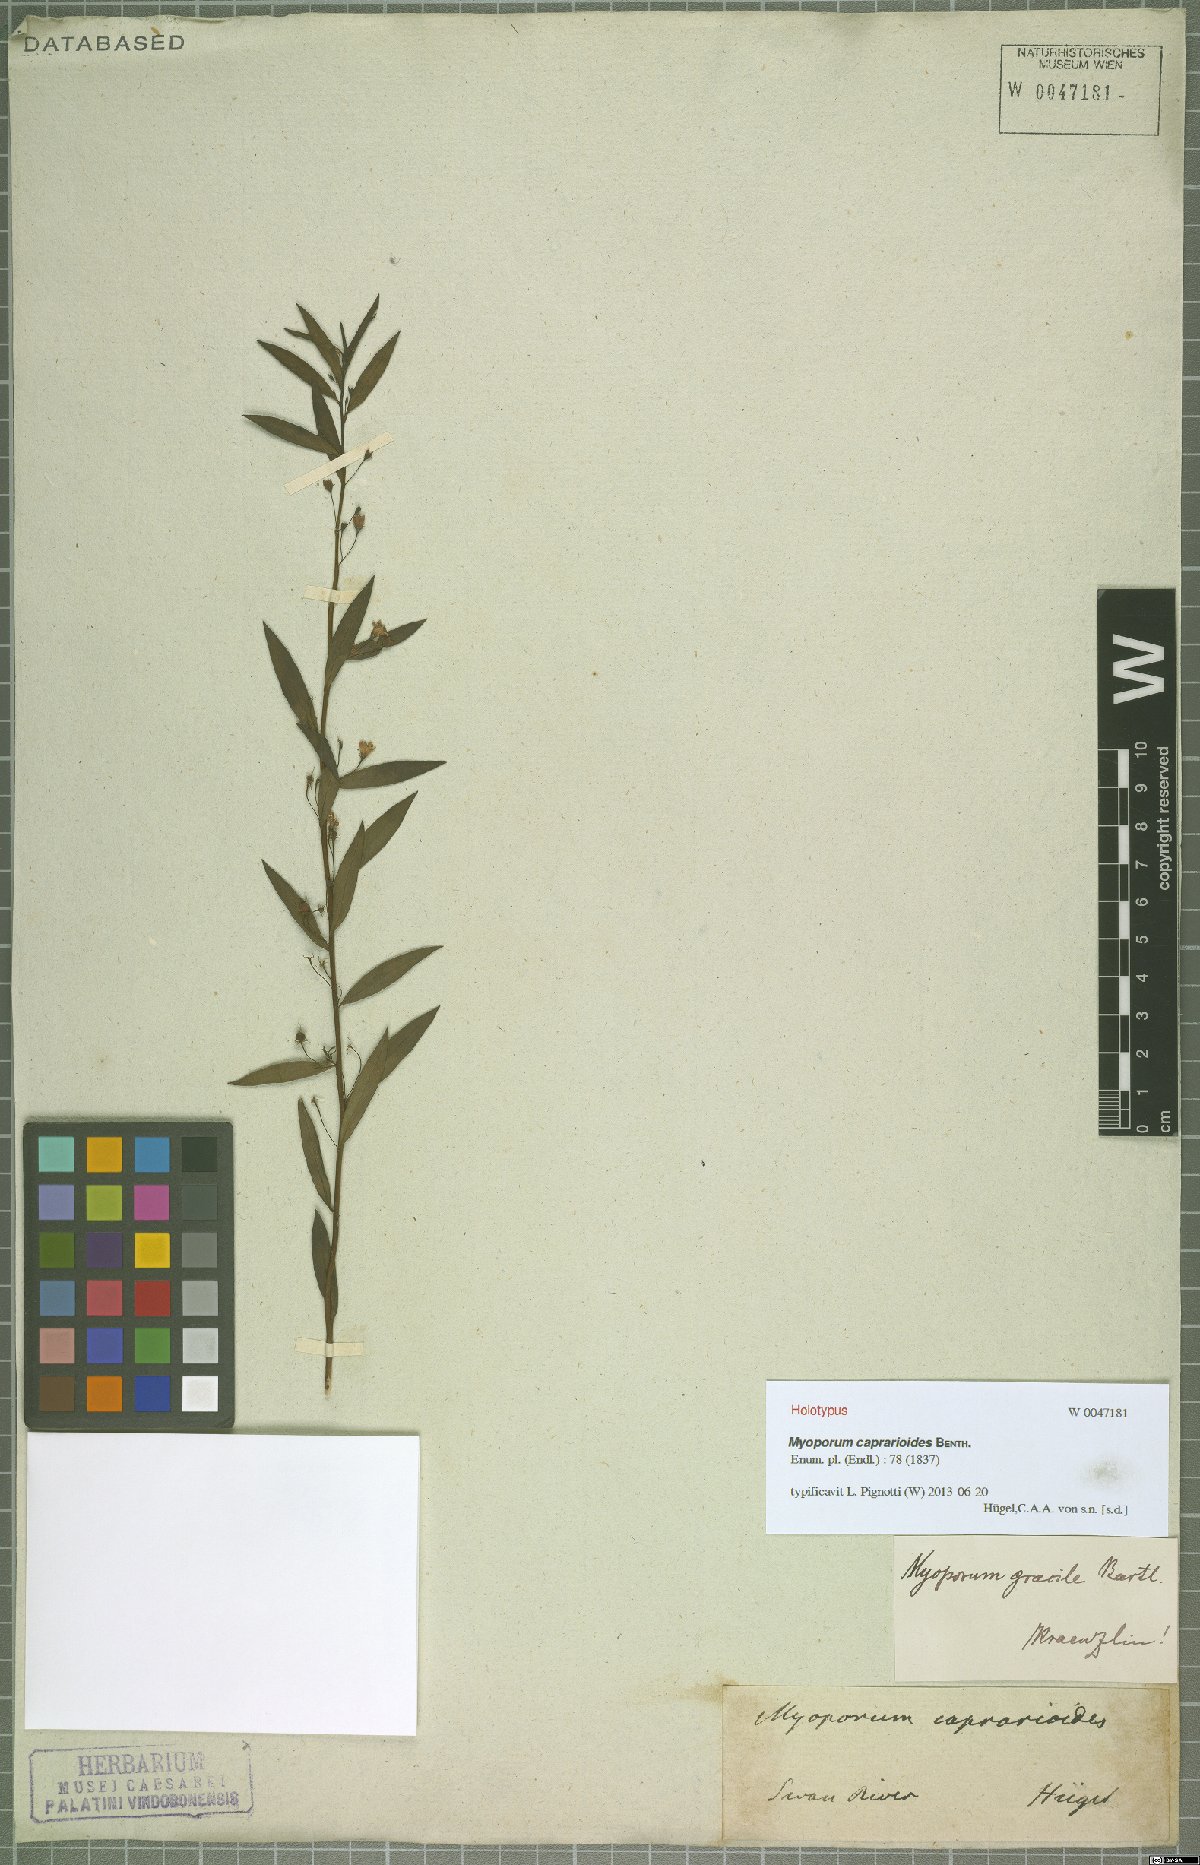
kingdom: Plantae
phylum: Tracheophyta
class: Magnoliopsida
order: Lamiales
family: Scrophulariaceae
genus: Myoporum
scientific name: Myoporum caprarioides
